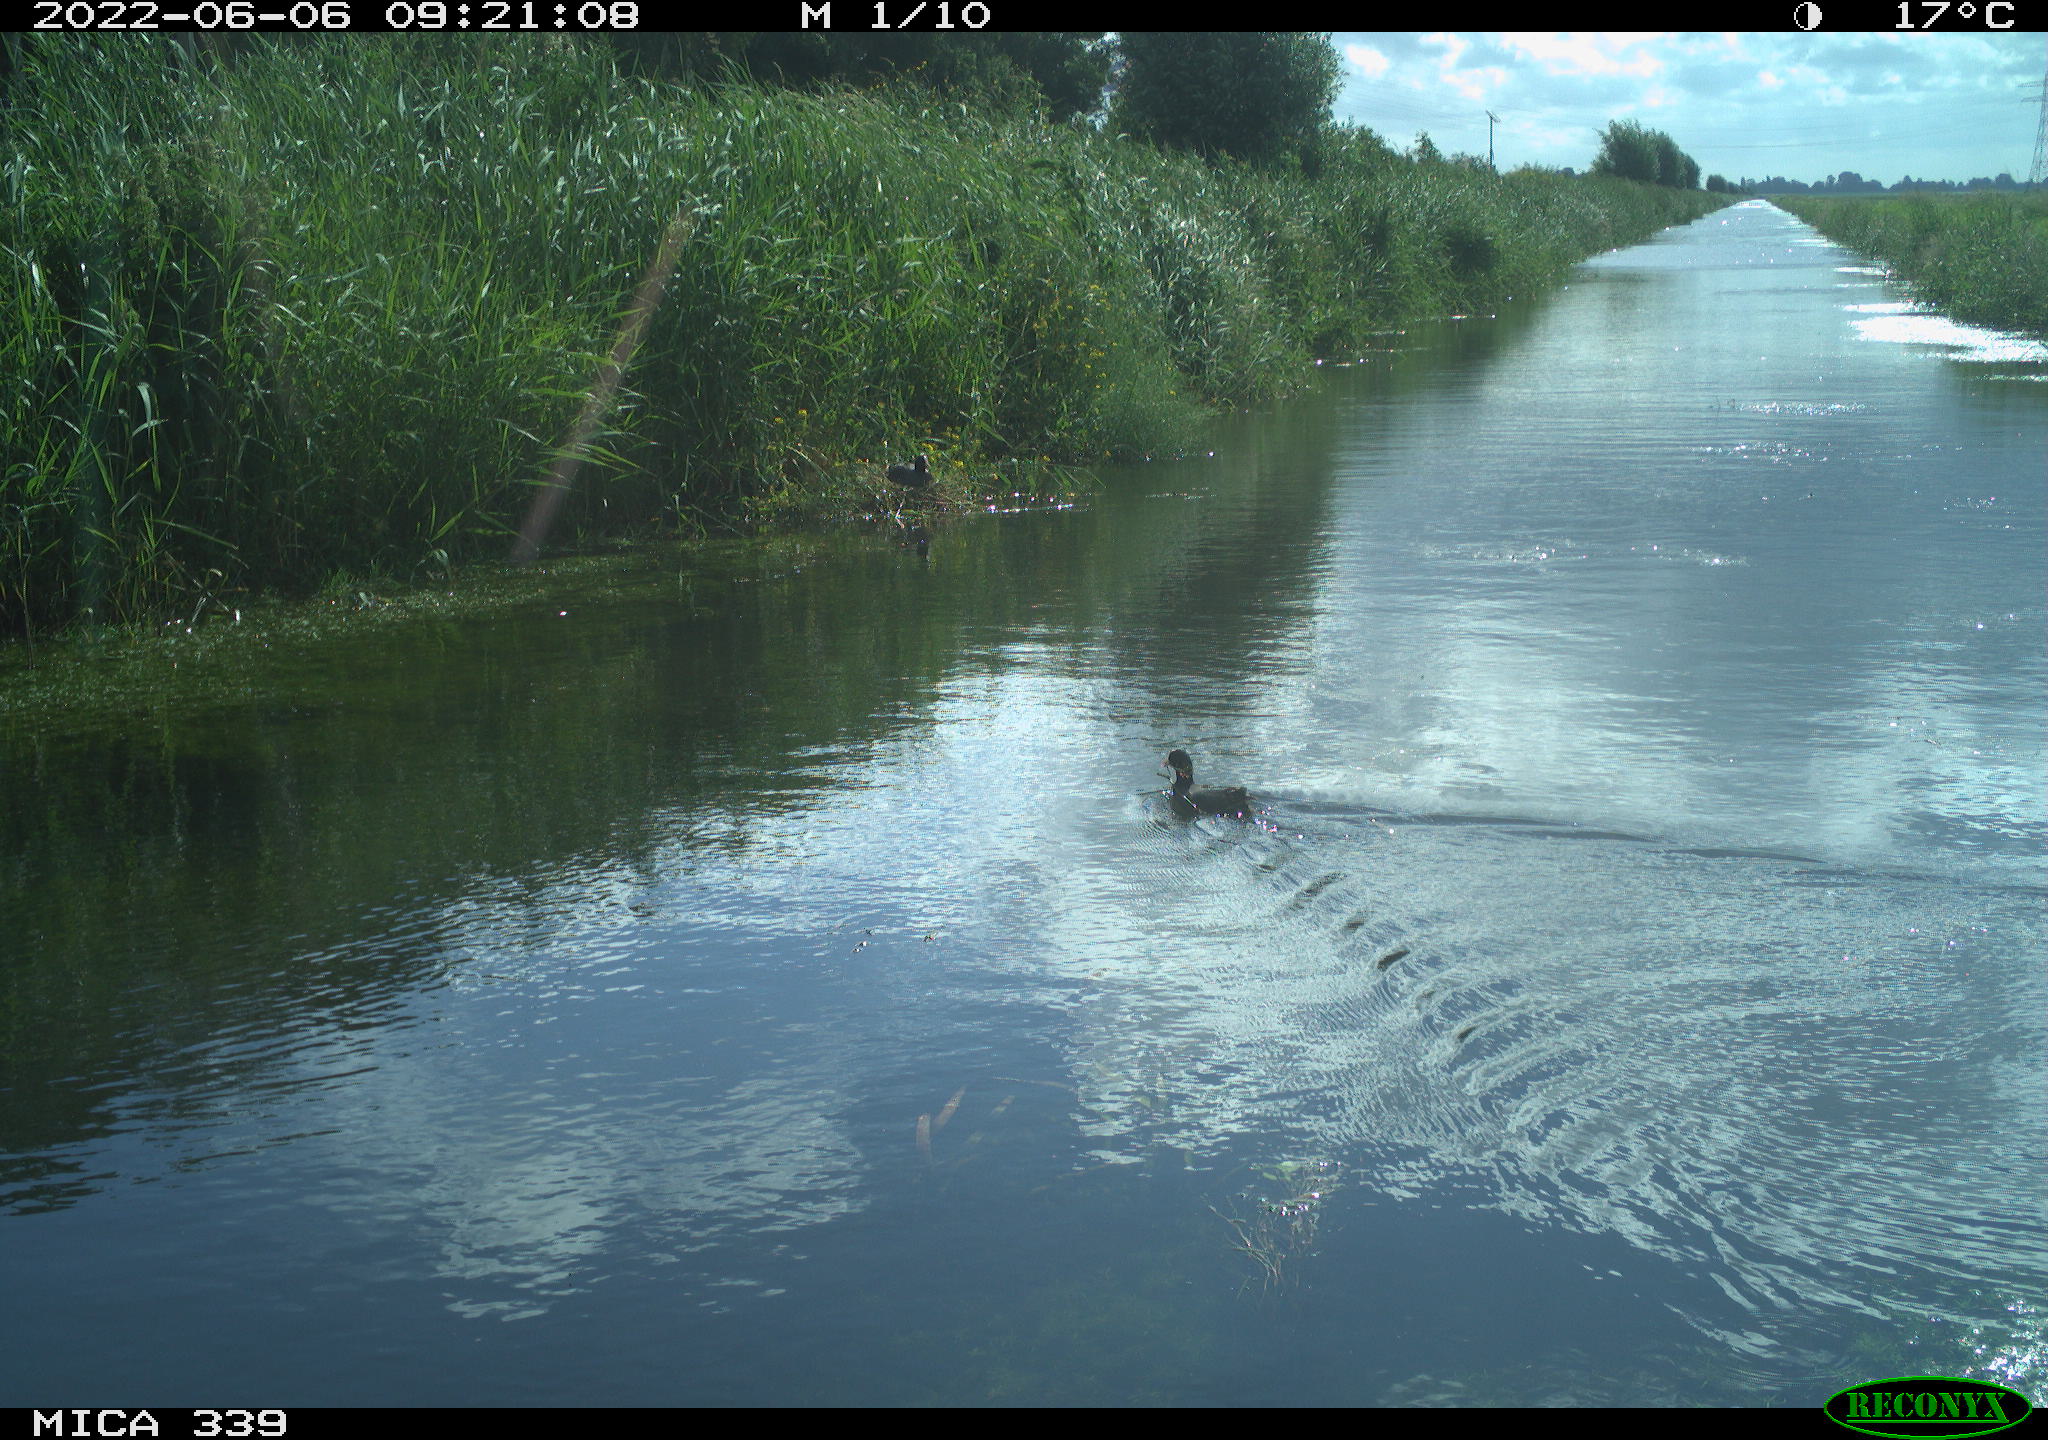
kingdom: Animalia
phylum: Chordata
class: Aves
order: Gruiformes
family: Rallidae
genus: Fulica
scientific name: Fulica atra
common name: Eurasian coot
